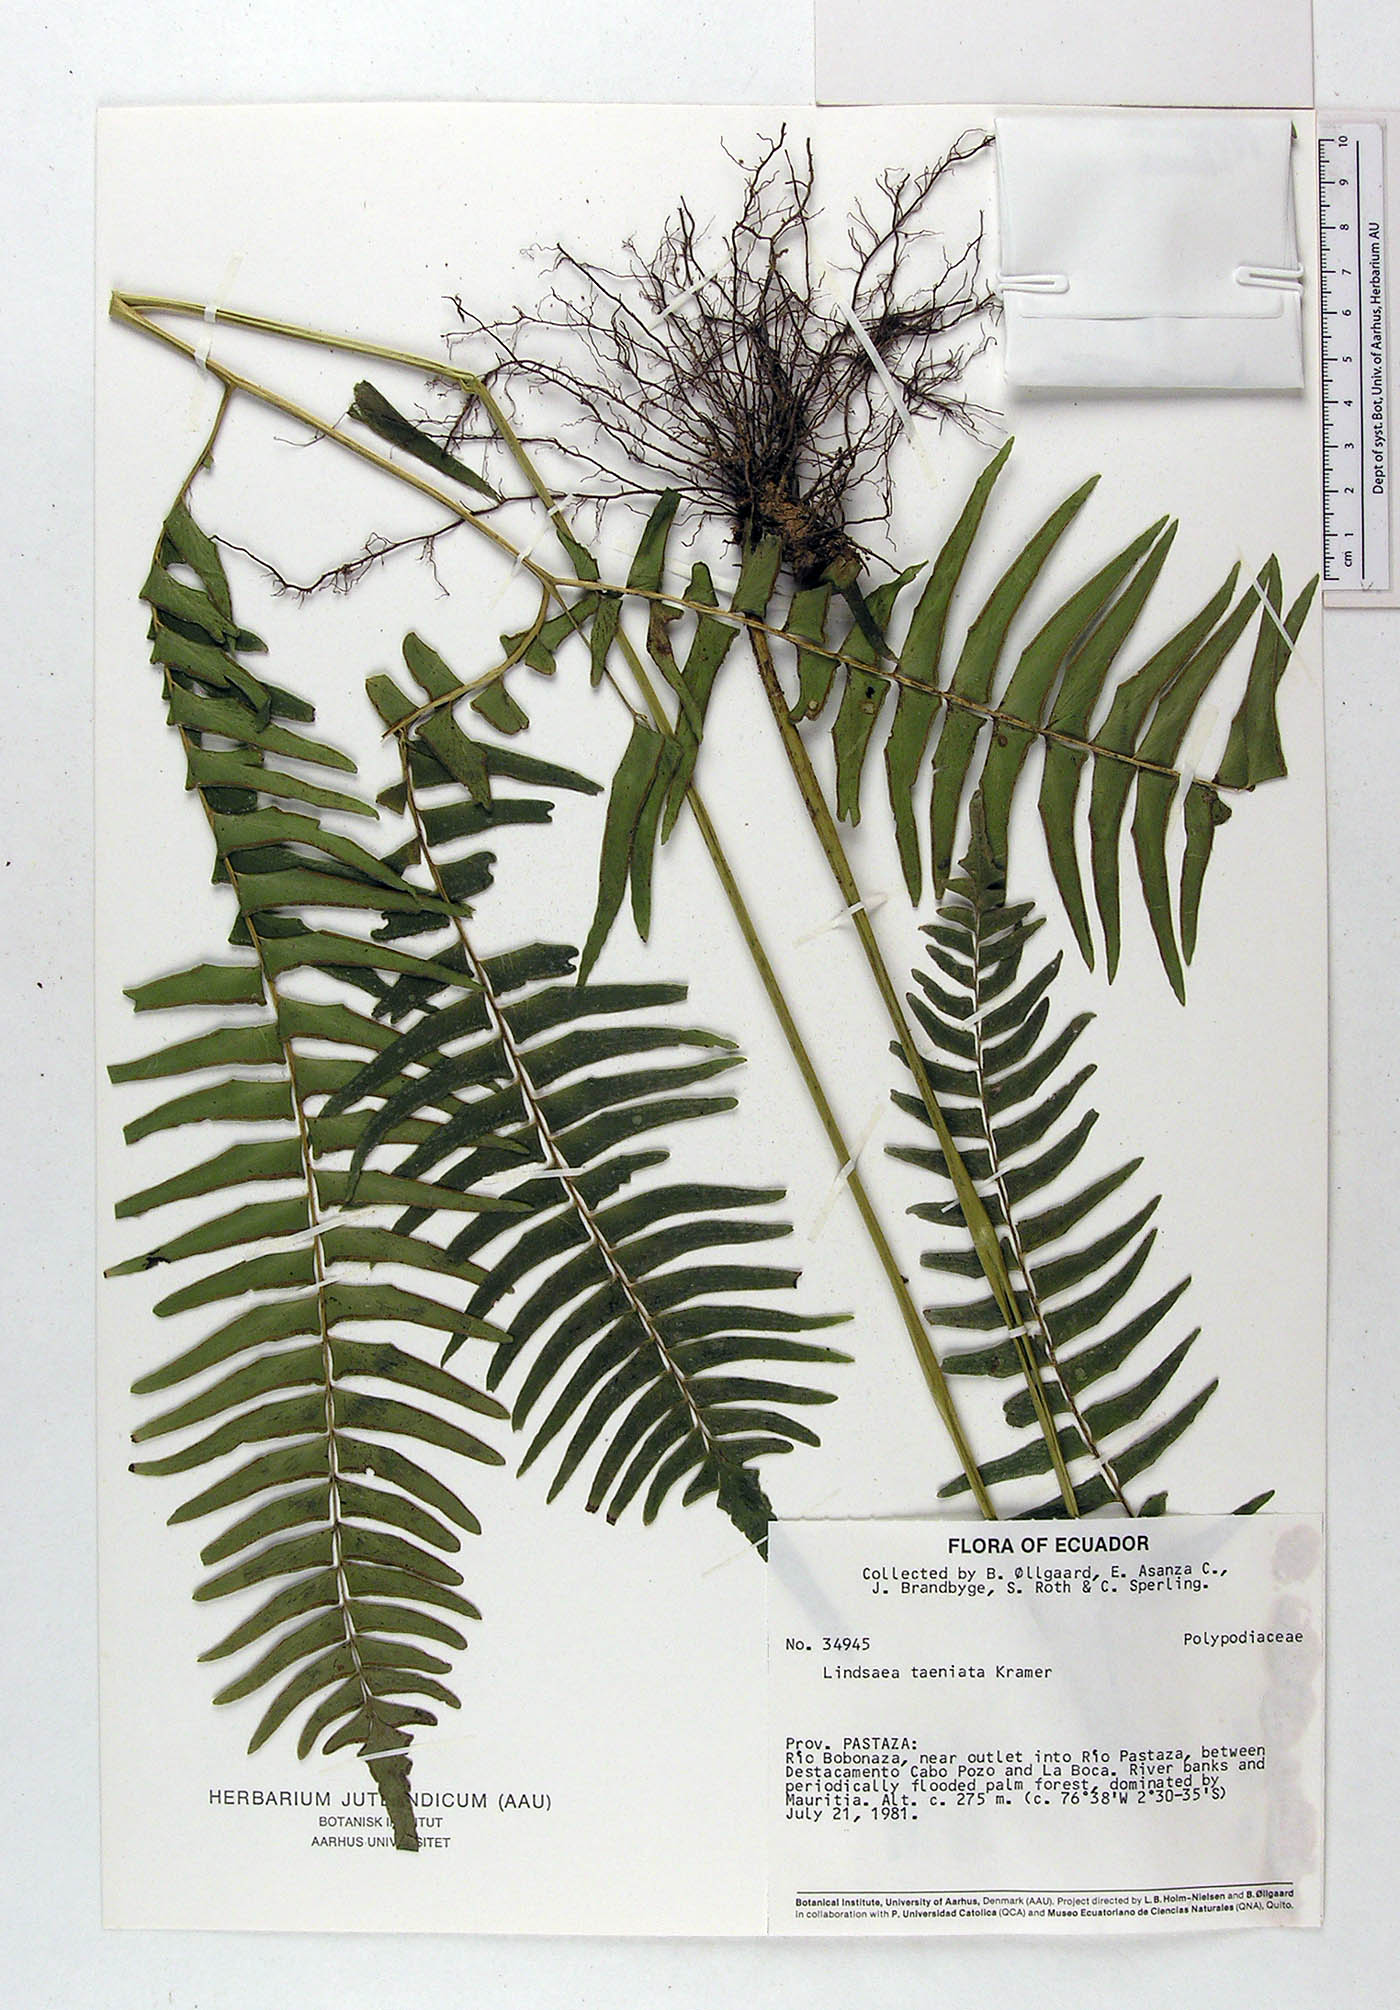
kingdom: Plantae
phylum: Tracheophyta
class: Polypodiopsida
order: Polypodiales
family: Lindsaeaceae
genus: Lindsaea
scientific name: Lindsaea taeniata
